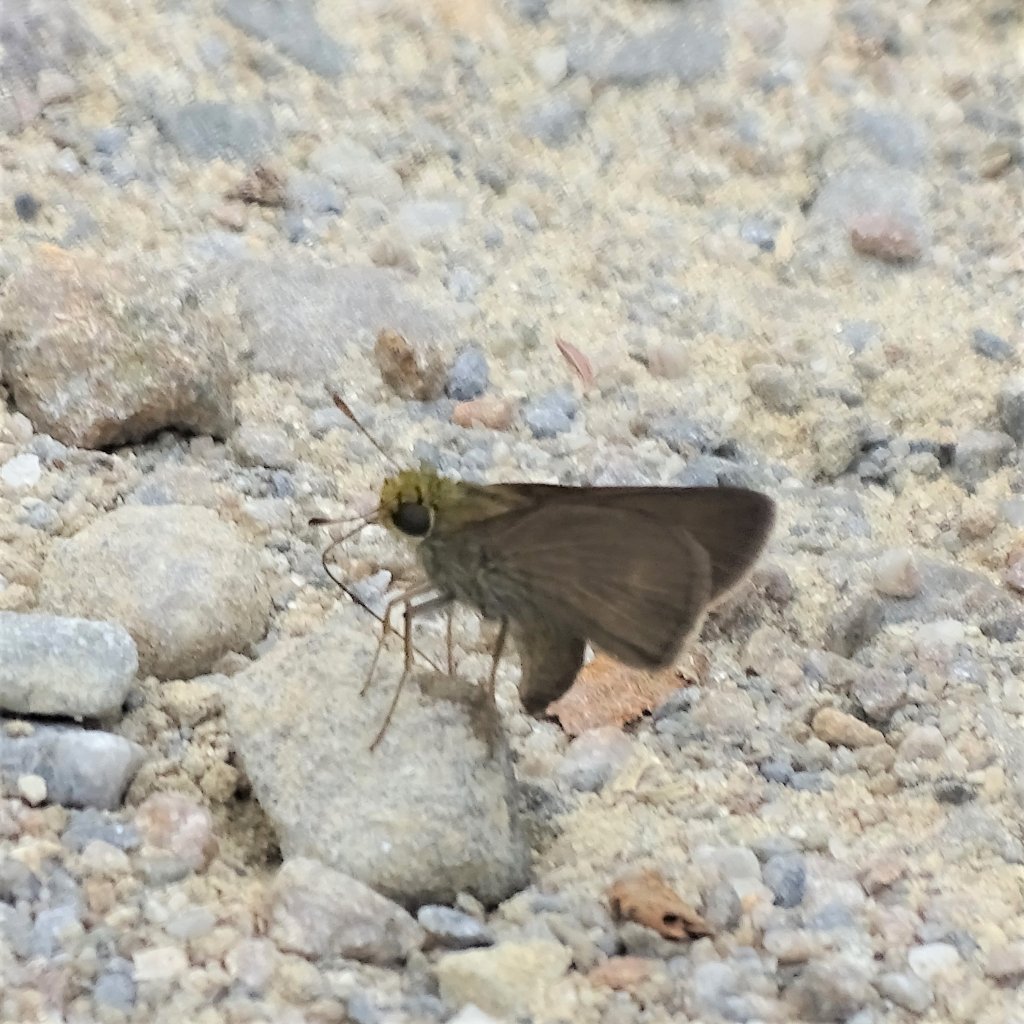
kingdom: Animalia
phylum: Arthropoda
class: Insecta
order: Lepidoptera
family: Hesperiidae
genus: Euphyes
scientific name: Euphyes vestris
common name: Dun Skipper
